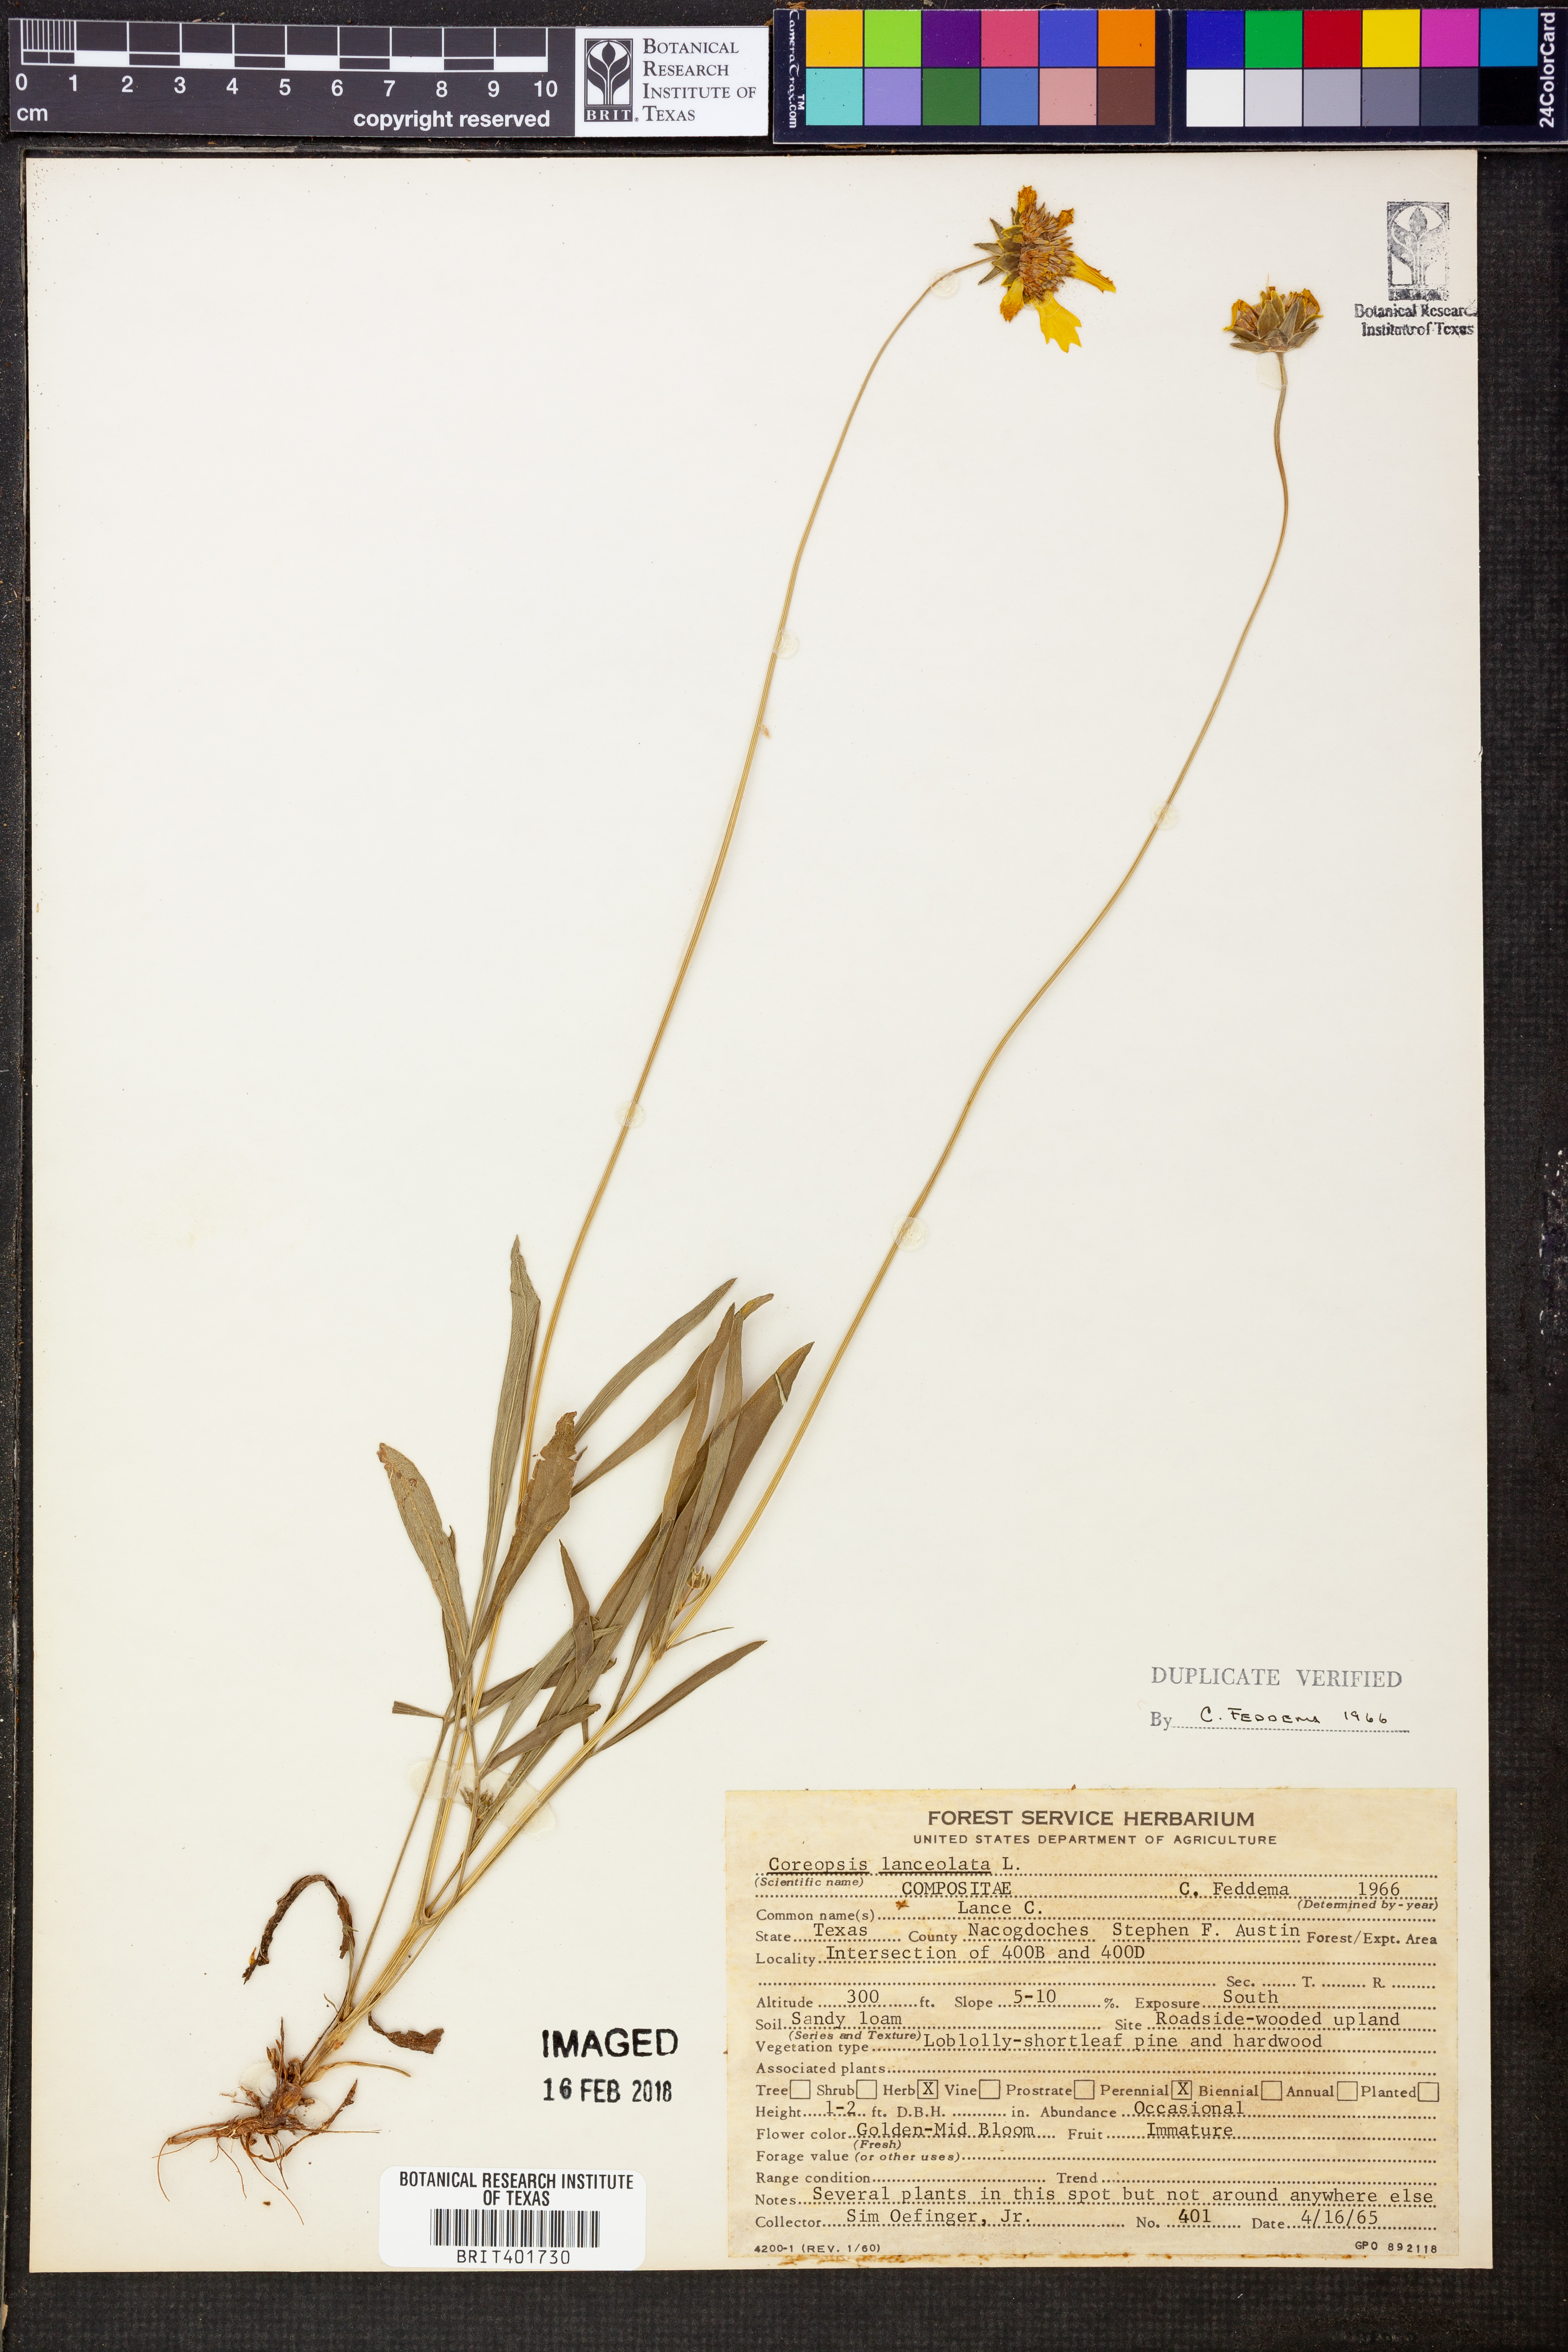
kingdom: Plantae
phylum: Tracheophyta
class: Magnoliopsida
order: Asterales
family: Asteraceae
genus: Coreopsis
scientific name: Coreopsis lanceolata
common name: Garden coreopsis
